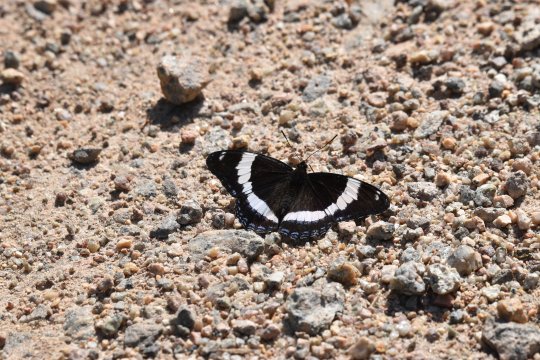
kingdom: Animalia
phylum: Arthropoda
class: Insecta
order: Lepidoptera
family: Nymphalidae
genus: Limenitis
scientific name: Limenitis arthemis
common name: Red-spotted Admiral
